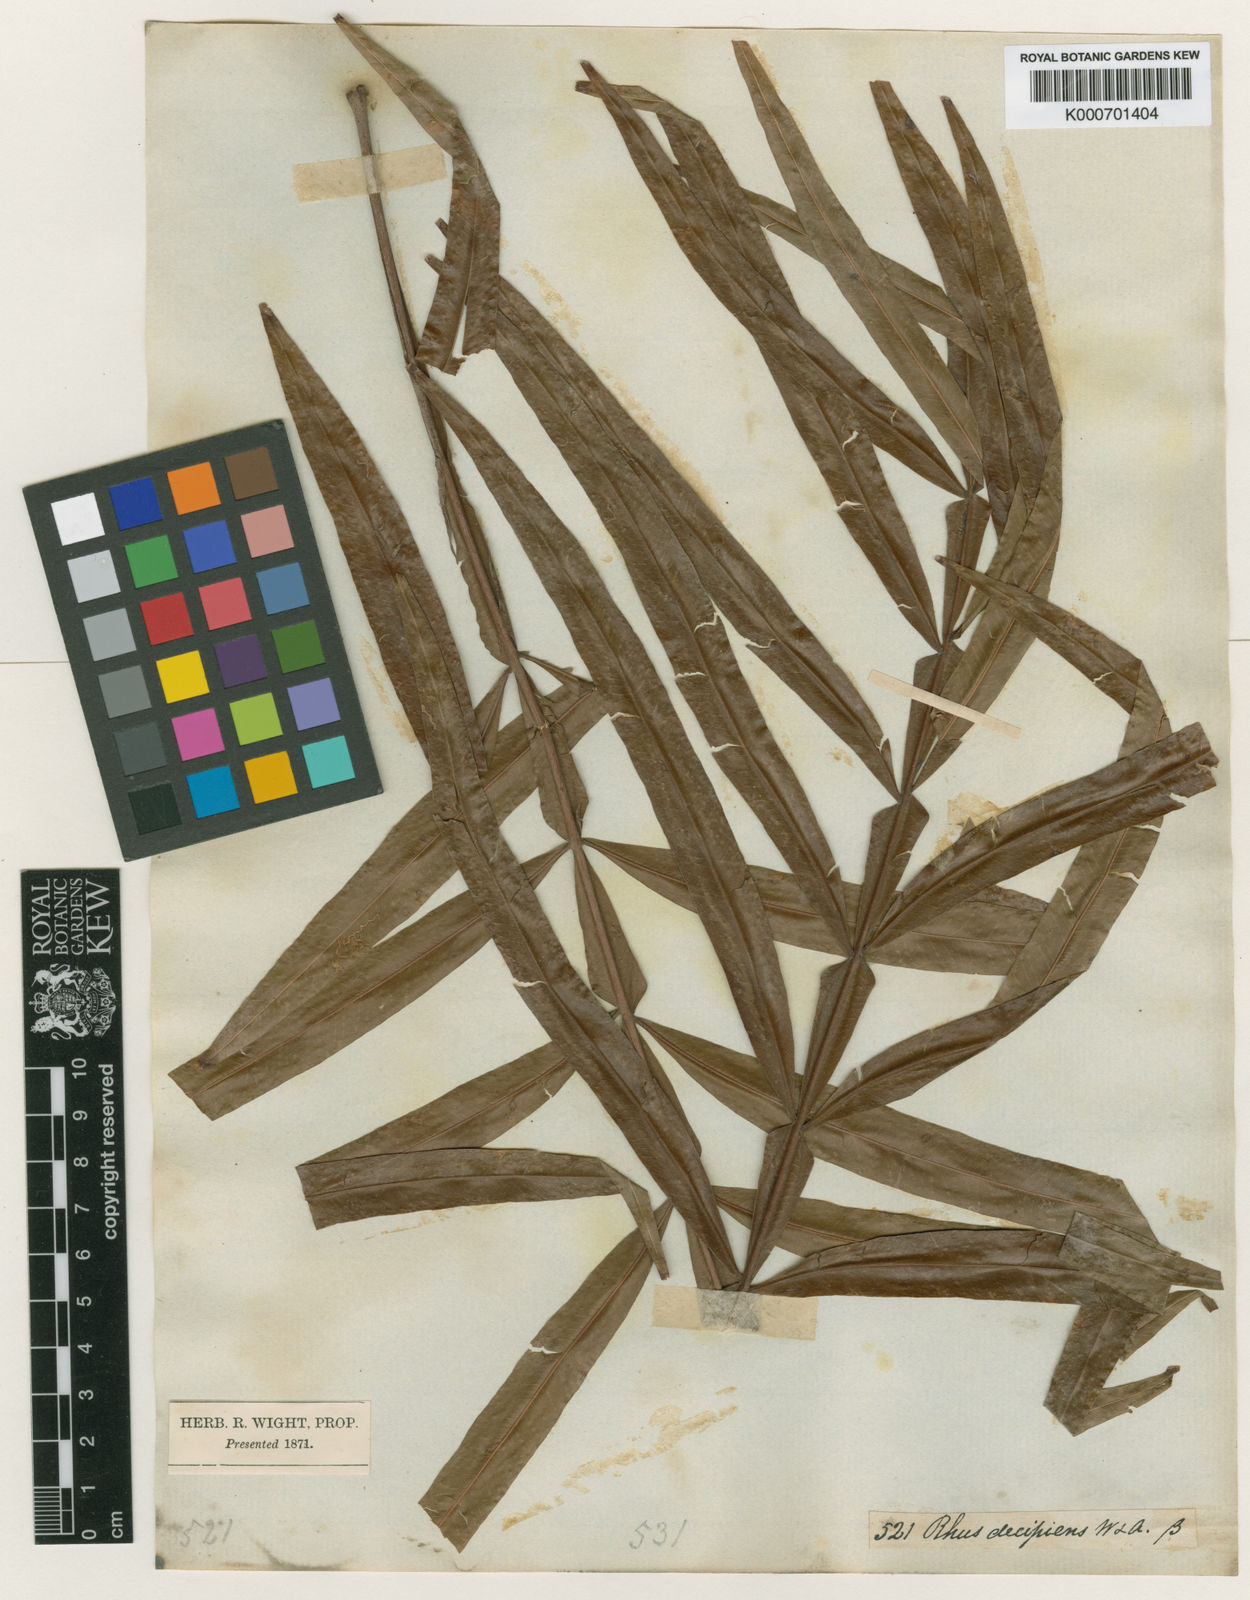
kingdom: Plantae
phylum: Tracheophyta
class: Magnoliopsida
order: Sapindales
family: Sapindaceae
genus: Filicium
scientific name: Filicium decipiens
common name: Ferntree
